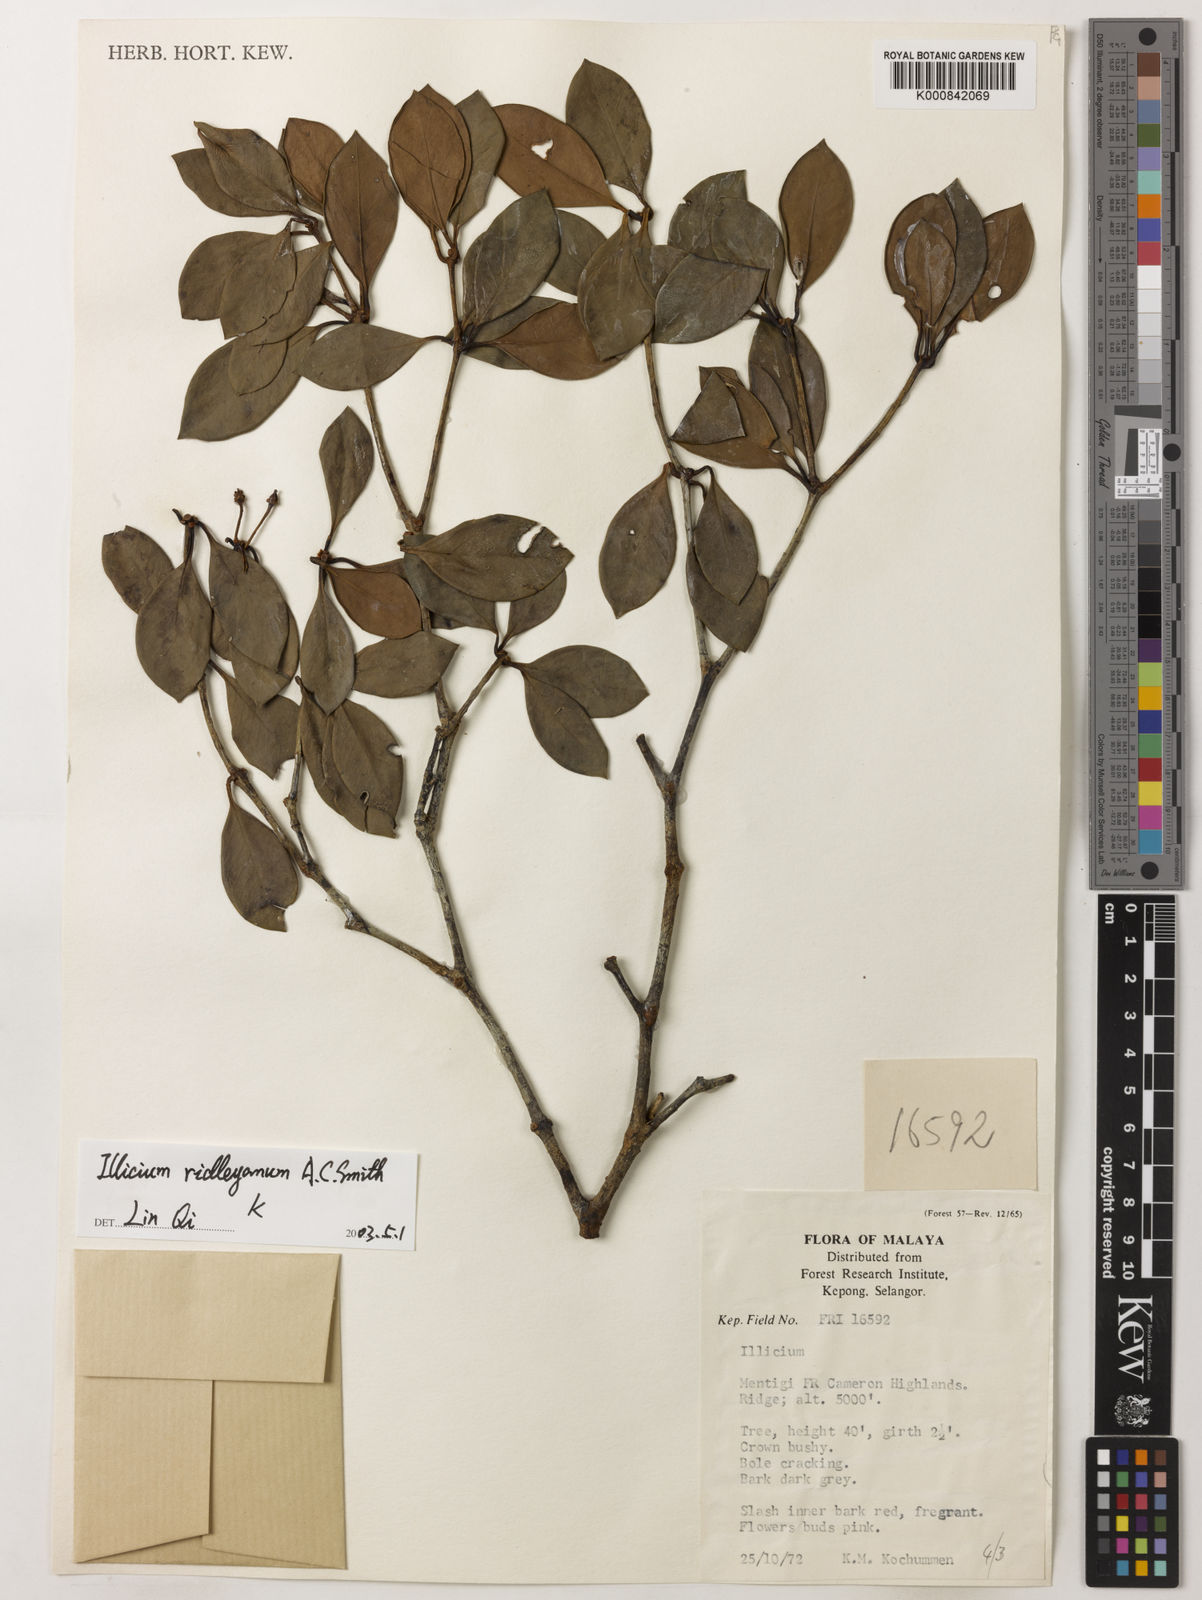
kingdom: Plantae
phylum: Tracheophyta
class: Magnoliopsida
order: Austrobaileyales
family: Schisandraceae
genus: Illicium
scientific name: Illicium ridleyanum
